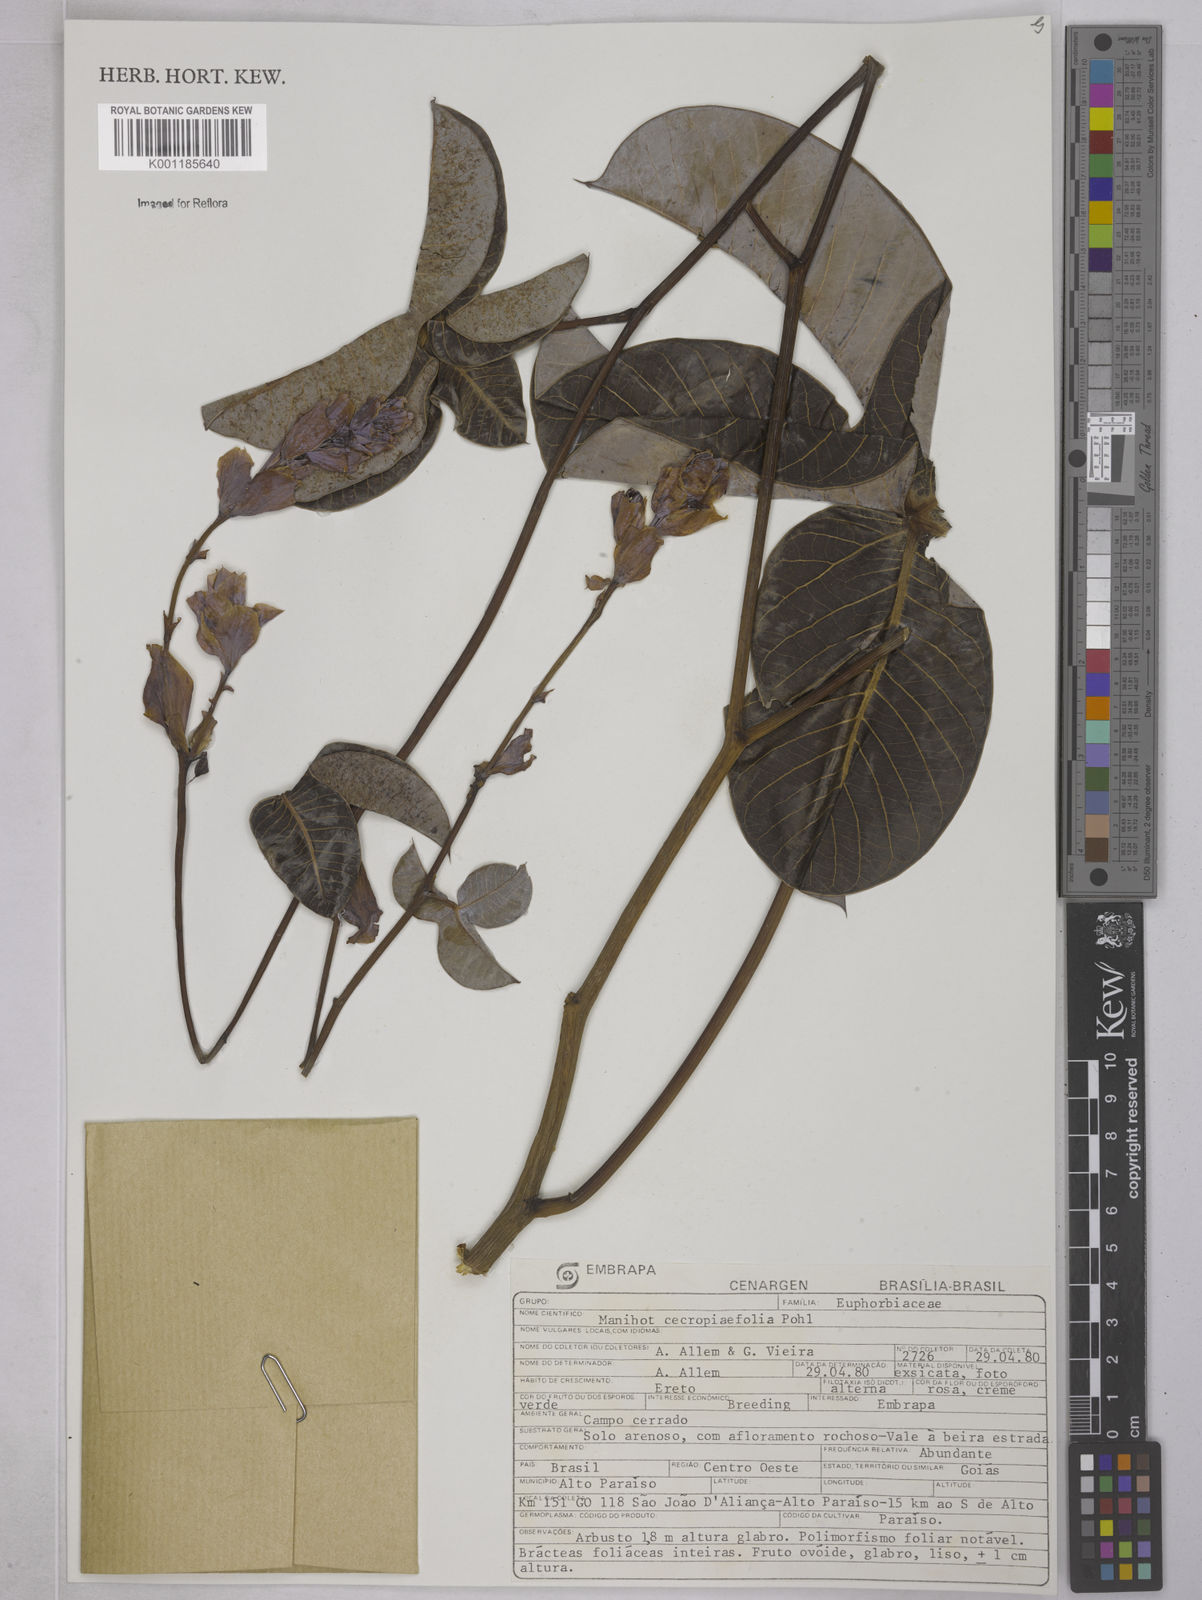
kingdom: Plantae
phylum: Tracheophyta
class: Magnoliopsida
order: Malpighiales
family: Euphorbiaceae
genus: Manihot
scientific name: Manihot cecropiifolia
